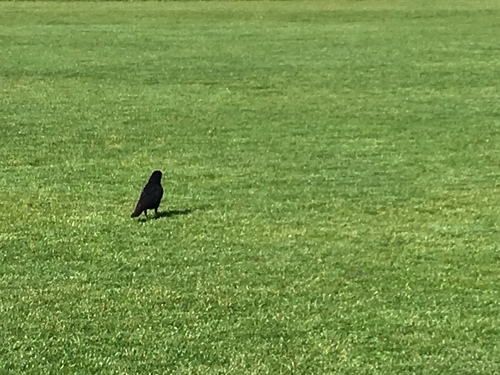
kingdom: Animalia
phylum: Chordata
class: Aves
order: Passeriformes
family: Corvidae
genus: Corvus
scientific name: Corvus corone
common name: Carrion crow
